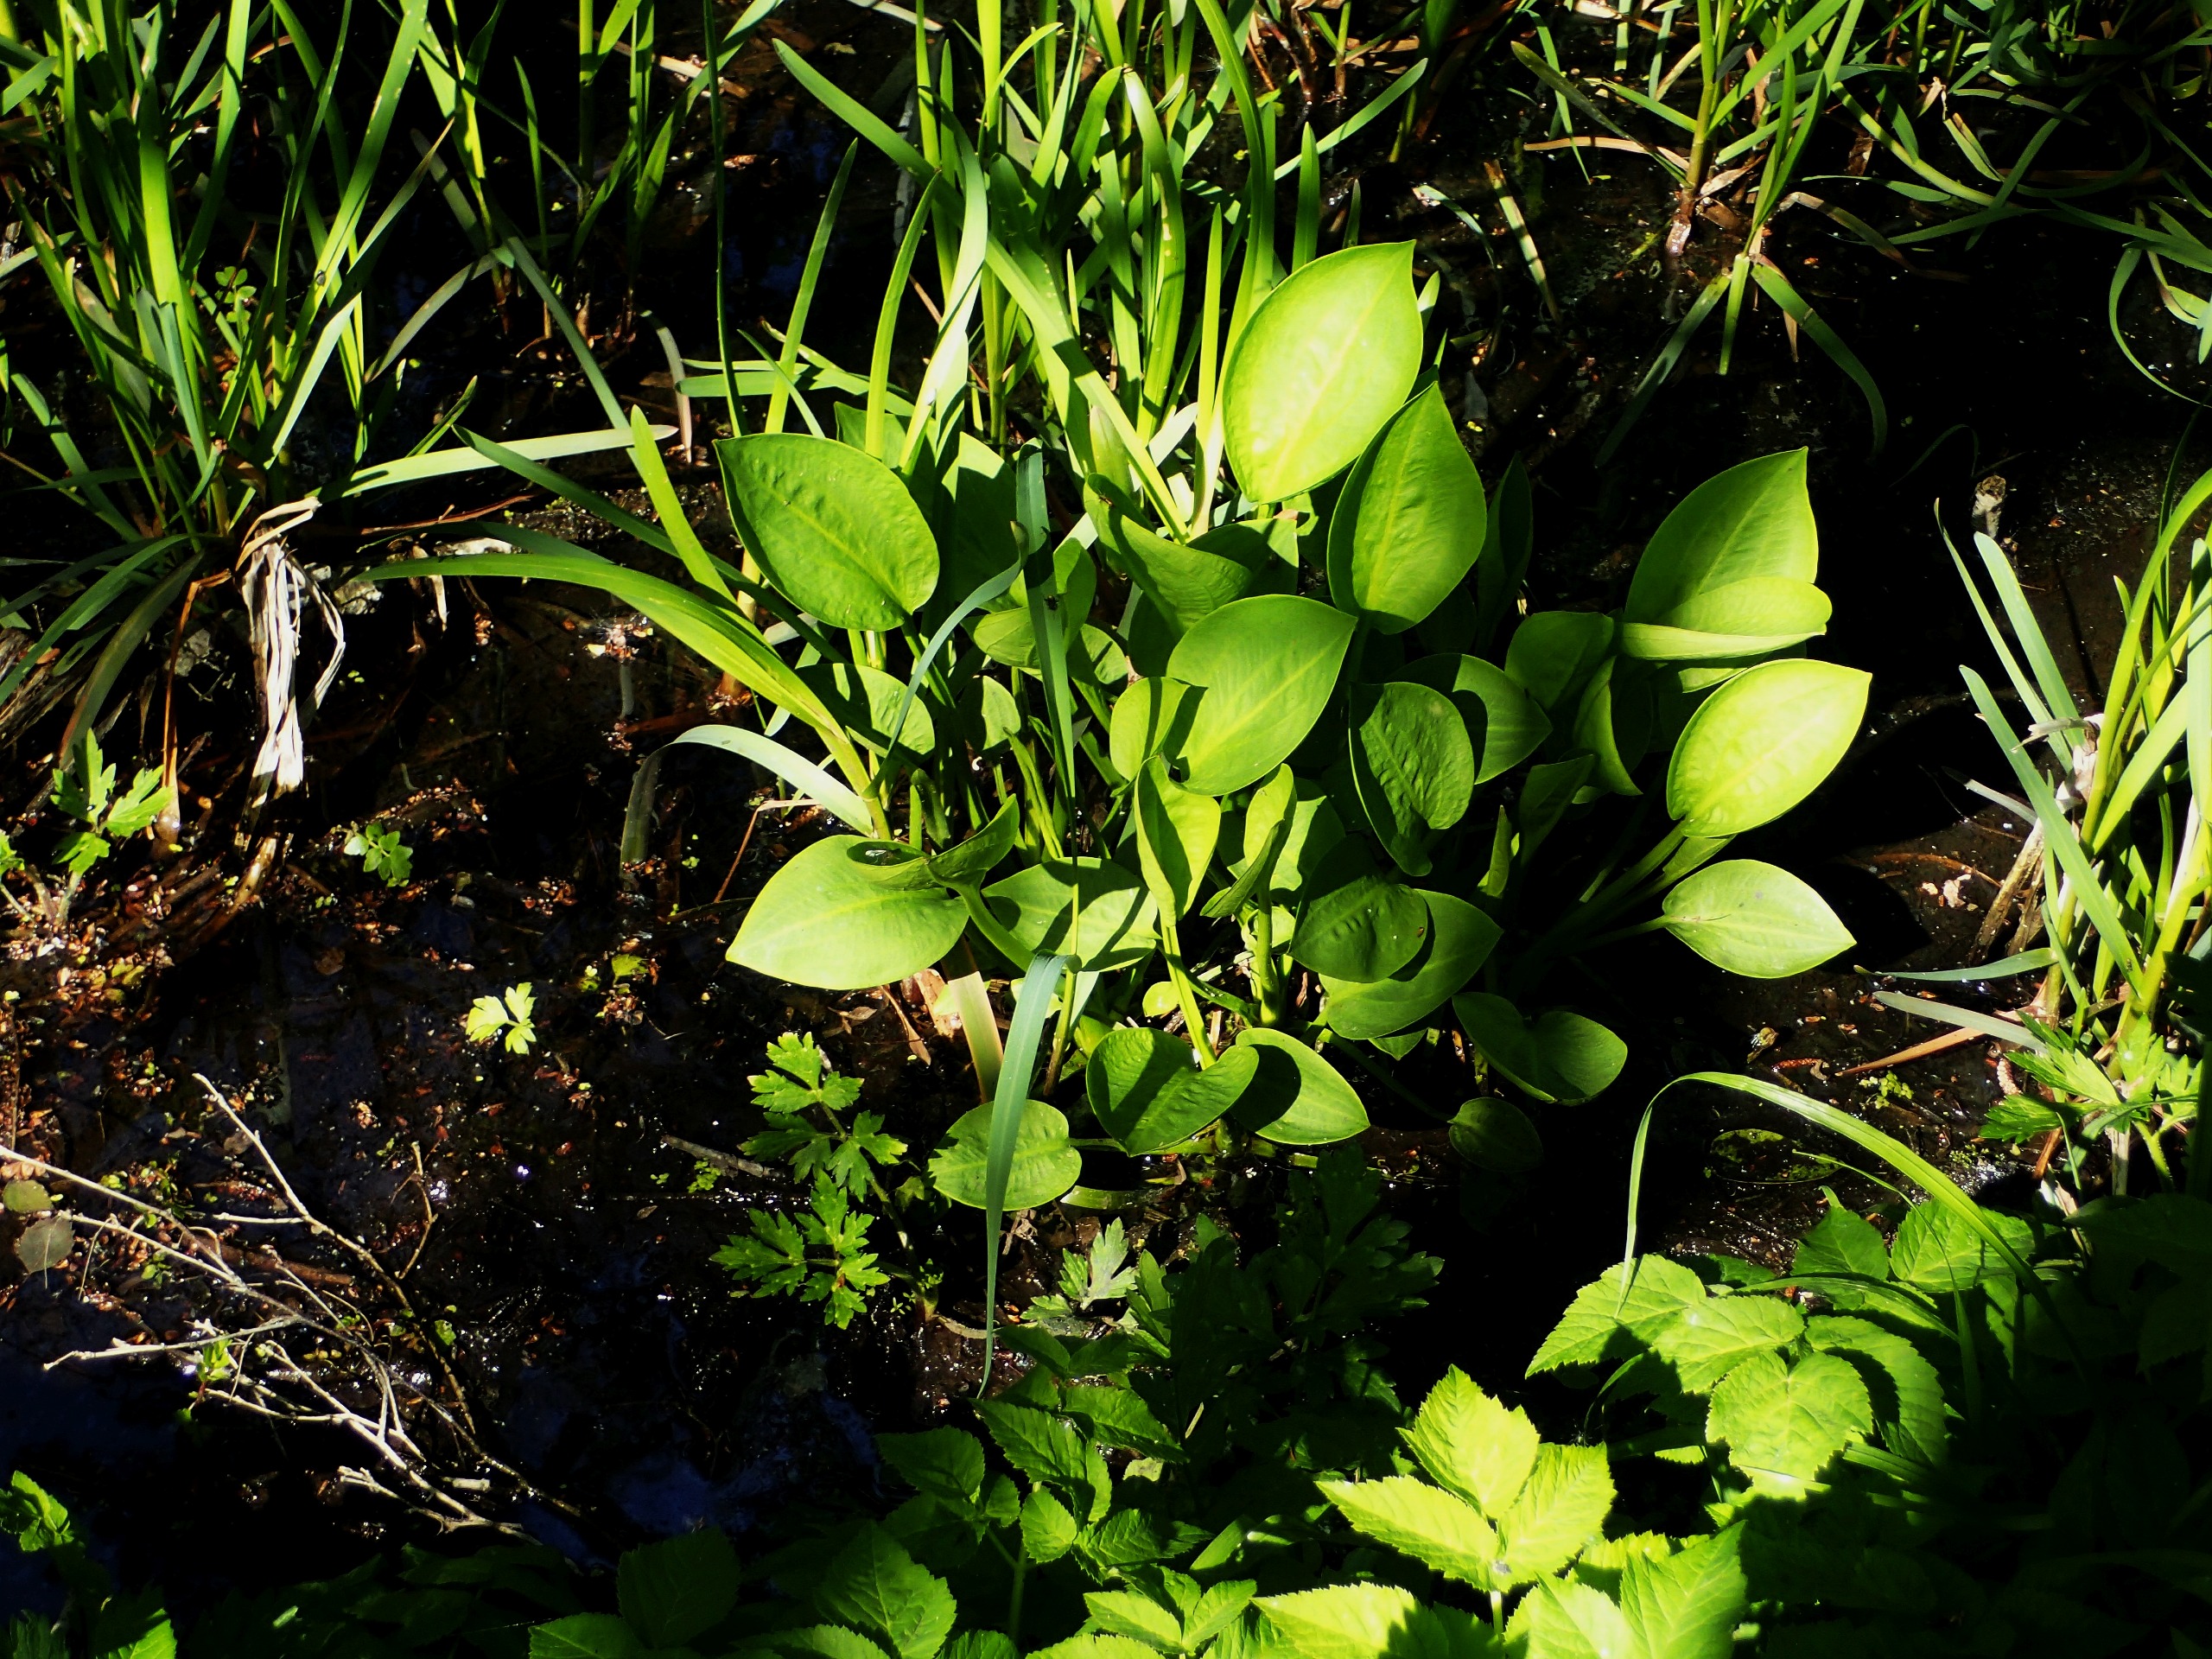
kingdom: Plantae
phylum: Tracheophyta
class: Liliopsida
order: Alismatales
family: Alismataceae
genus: Alisma
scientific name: Alisma plantago-aquatica
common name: Vejbred-skeblad
